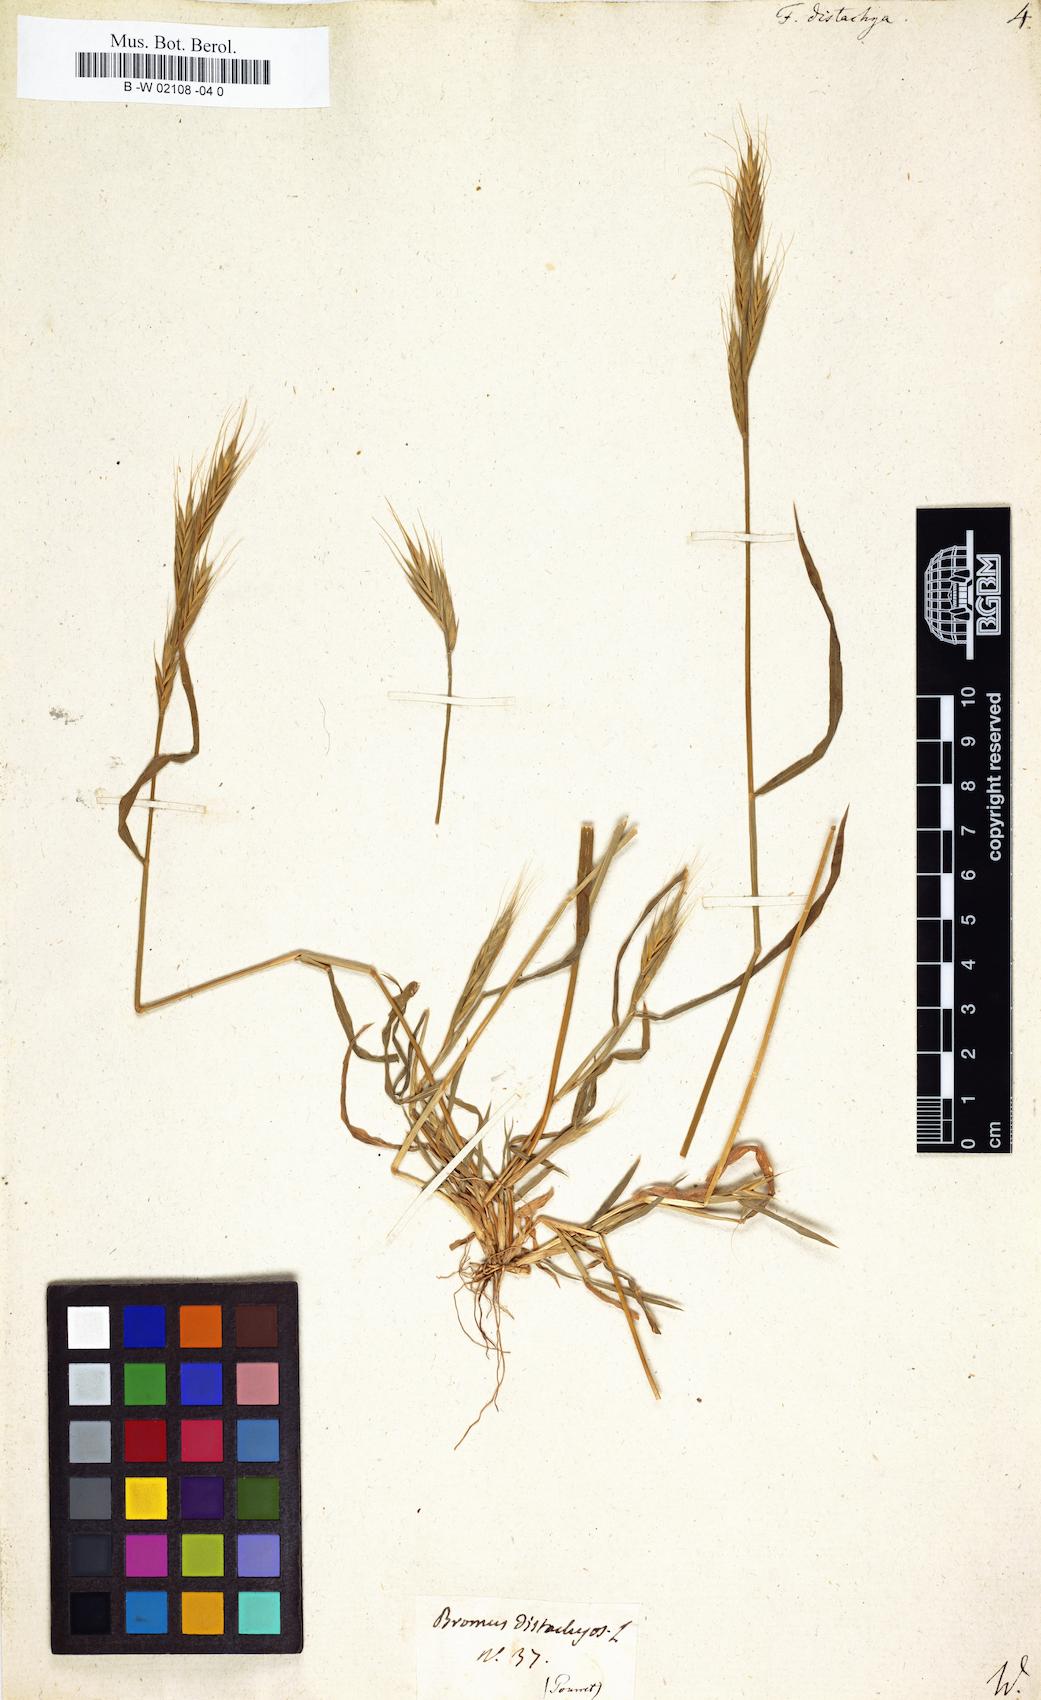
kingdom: Plantae
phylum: Tracheophyta
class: Liliopsida
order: Poales
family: Poaceae
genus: Brachypodium
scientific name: Brachypodium distachyon
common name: Stiff brome
